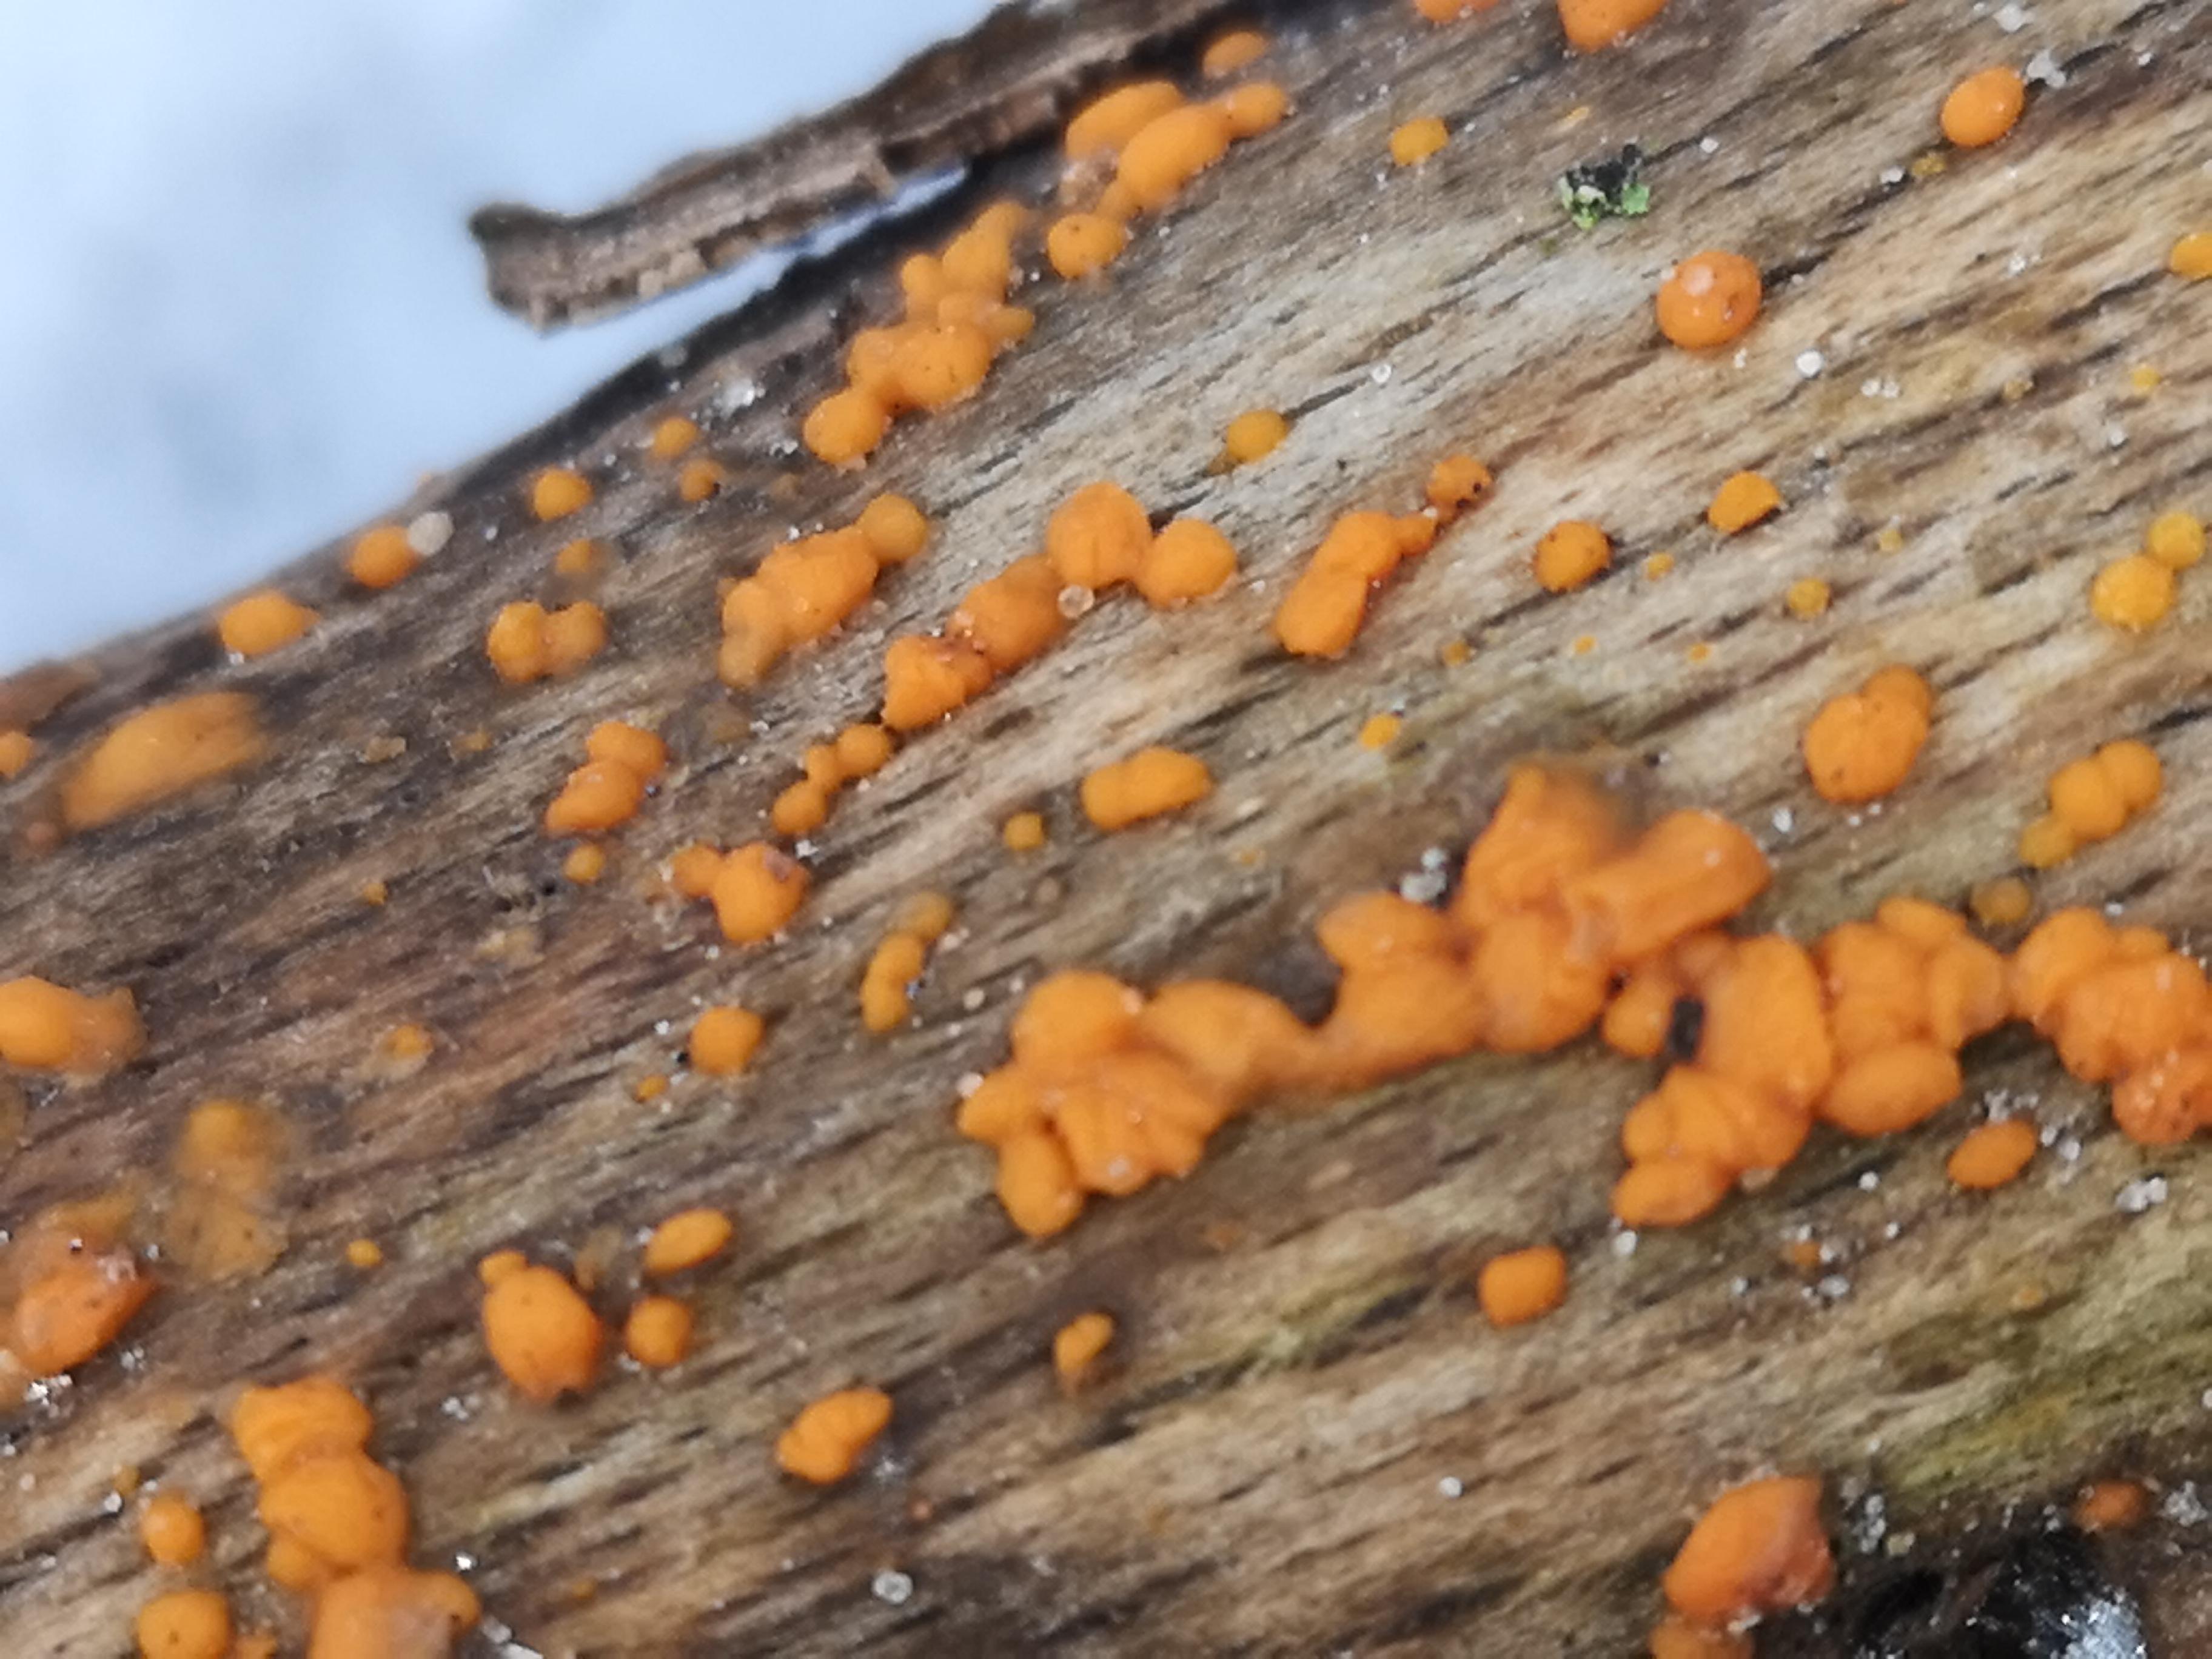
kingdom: Fungi
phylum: Basidiomycota
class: Dacrymycetes
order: Dacrymycetales
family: Dacrymycetaceae
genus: Dacrymyces
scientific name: Dacrymyces stillatus
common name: almindelig tåresvamp
